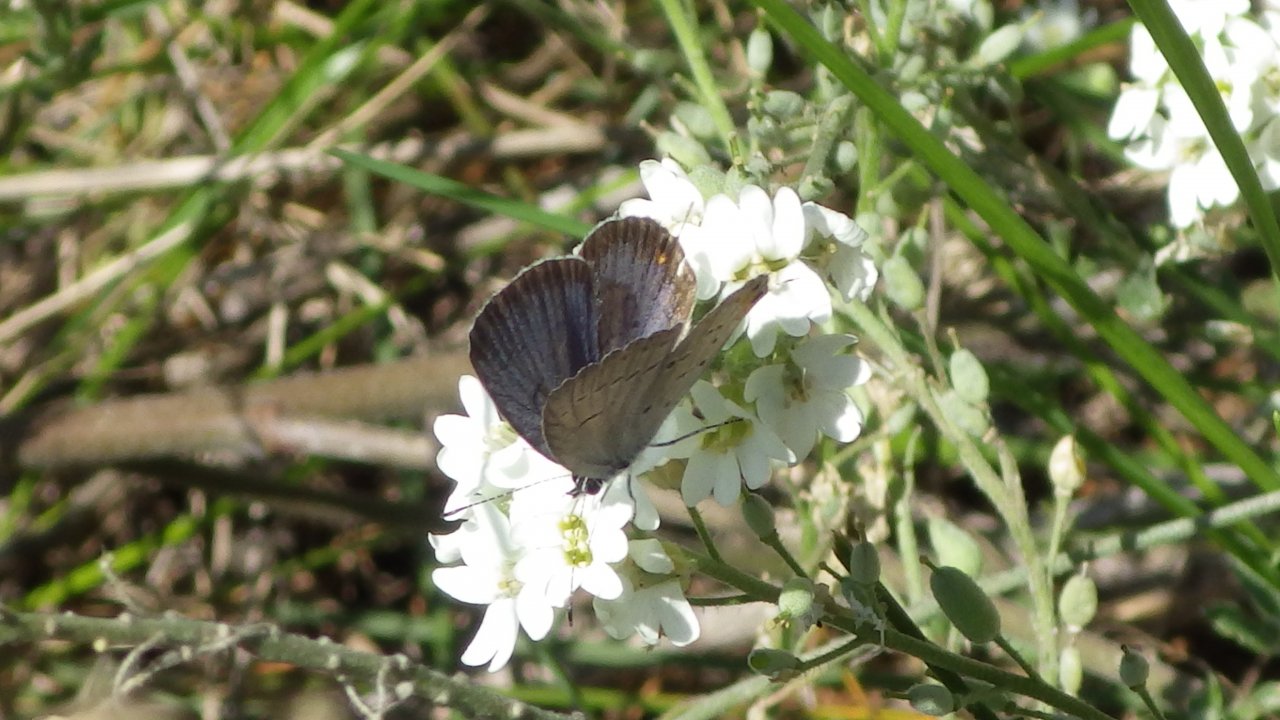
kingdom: Animalia
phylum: Arthropoda
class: Insecta
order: Lepidoptera
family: Lycaenidae
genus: Elkalyce
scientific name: Elkalyce comyntas
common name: Eastern Tailed-Blue
